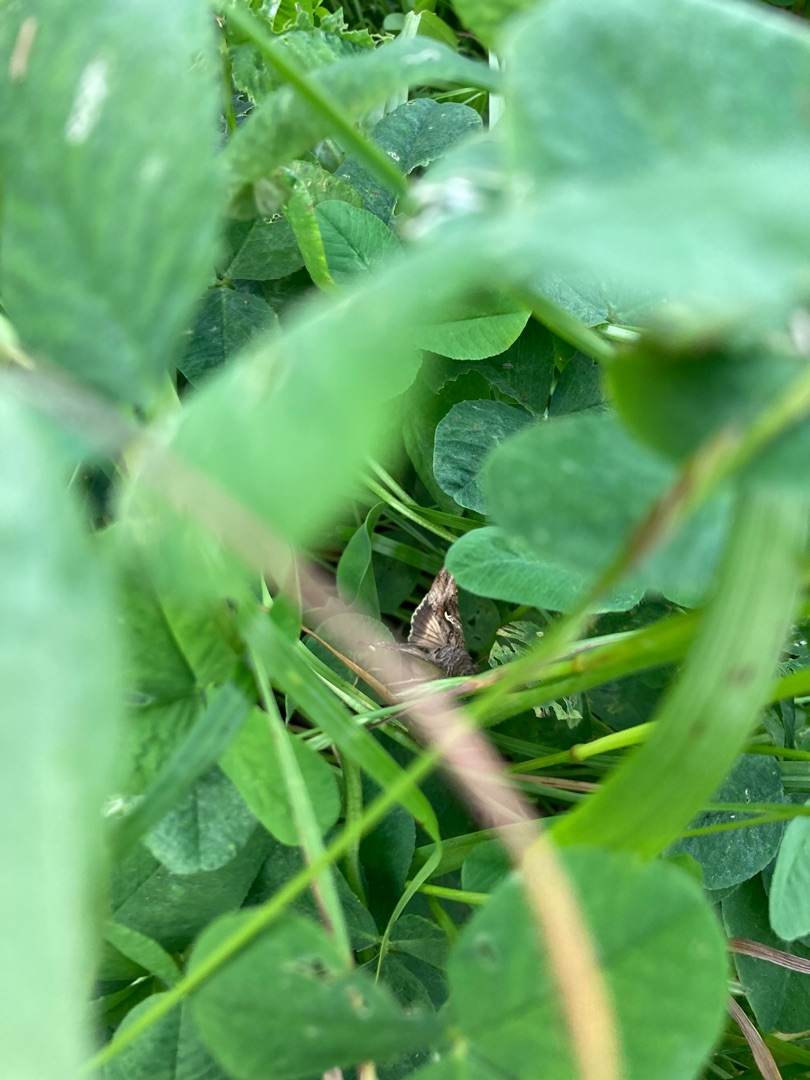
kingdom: Animalia
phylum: Arthropoda
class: Insecta
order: Lepidoptera
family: Noctuidae
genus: Autographa
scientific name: Autographa gamma
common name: Gammaugle
